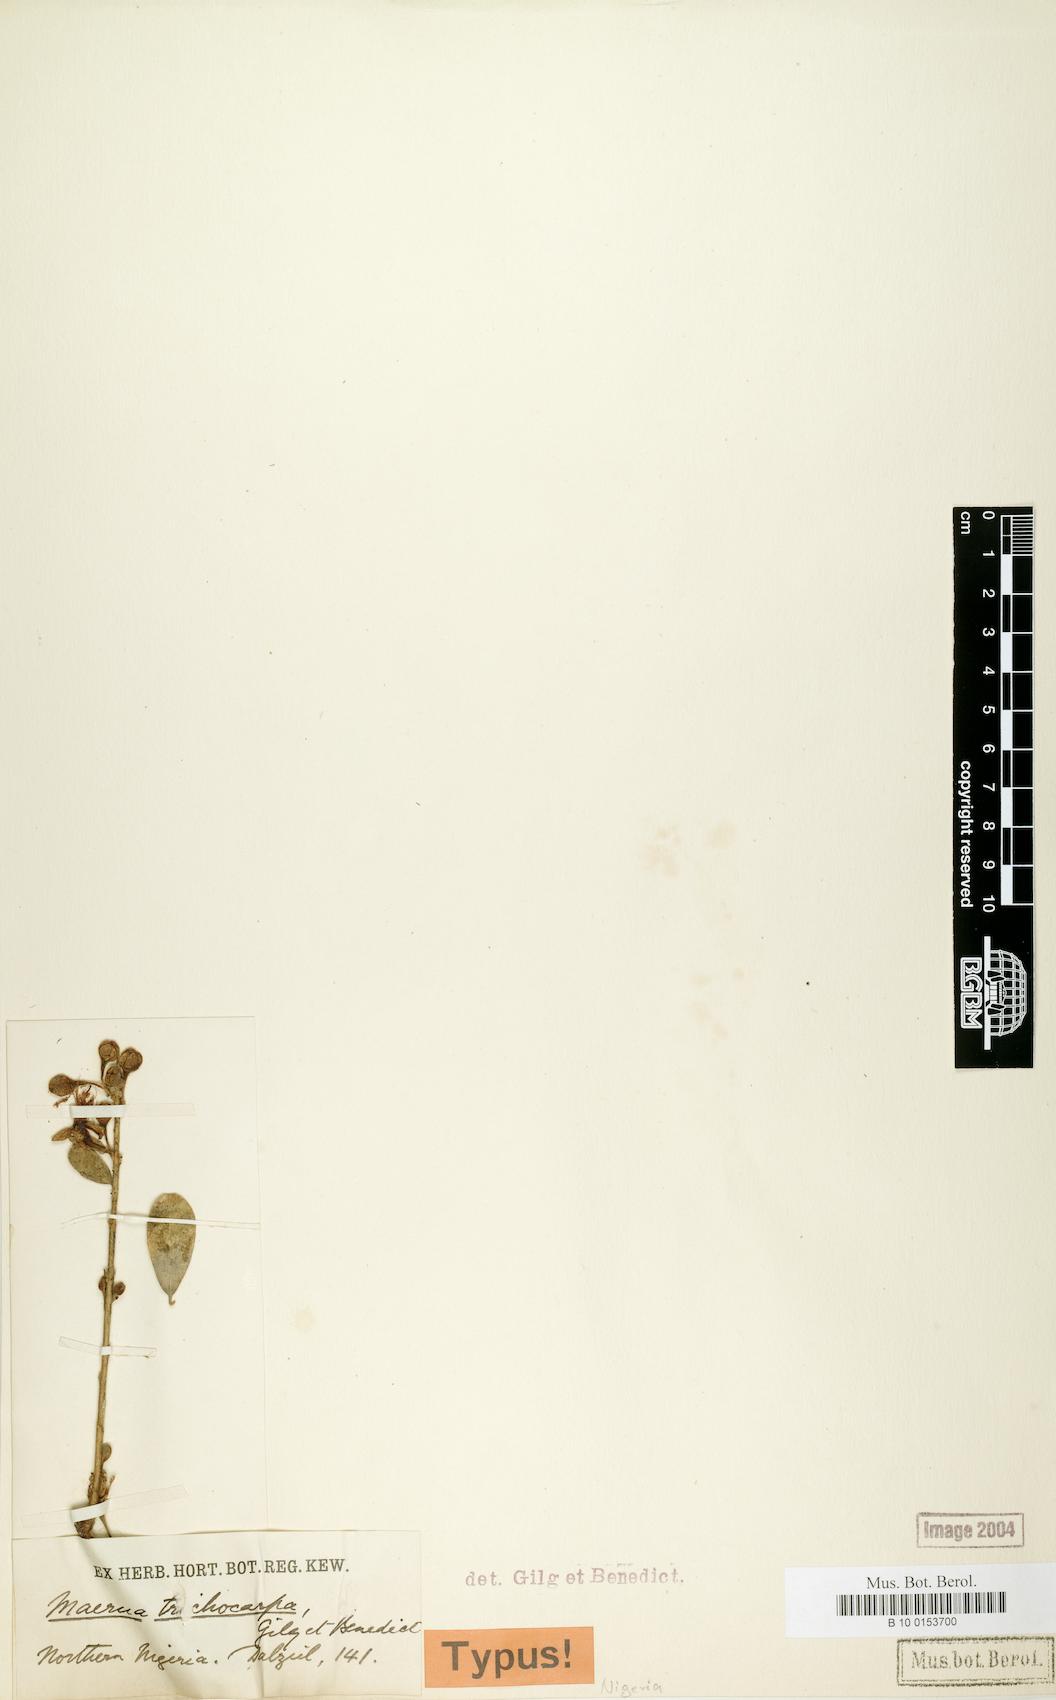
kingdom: Plantae
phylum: Tracheophyta
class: Magnoliopsida
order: Brassicales
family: Capparaceae
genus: Maerua
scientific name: Maerua triphylla
